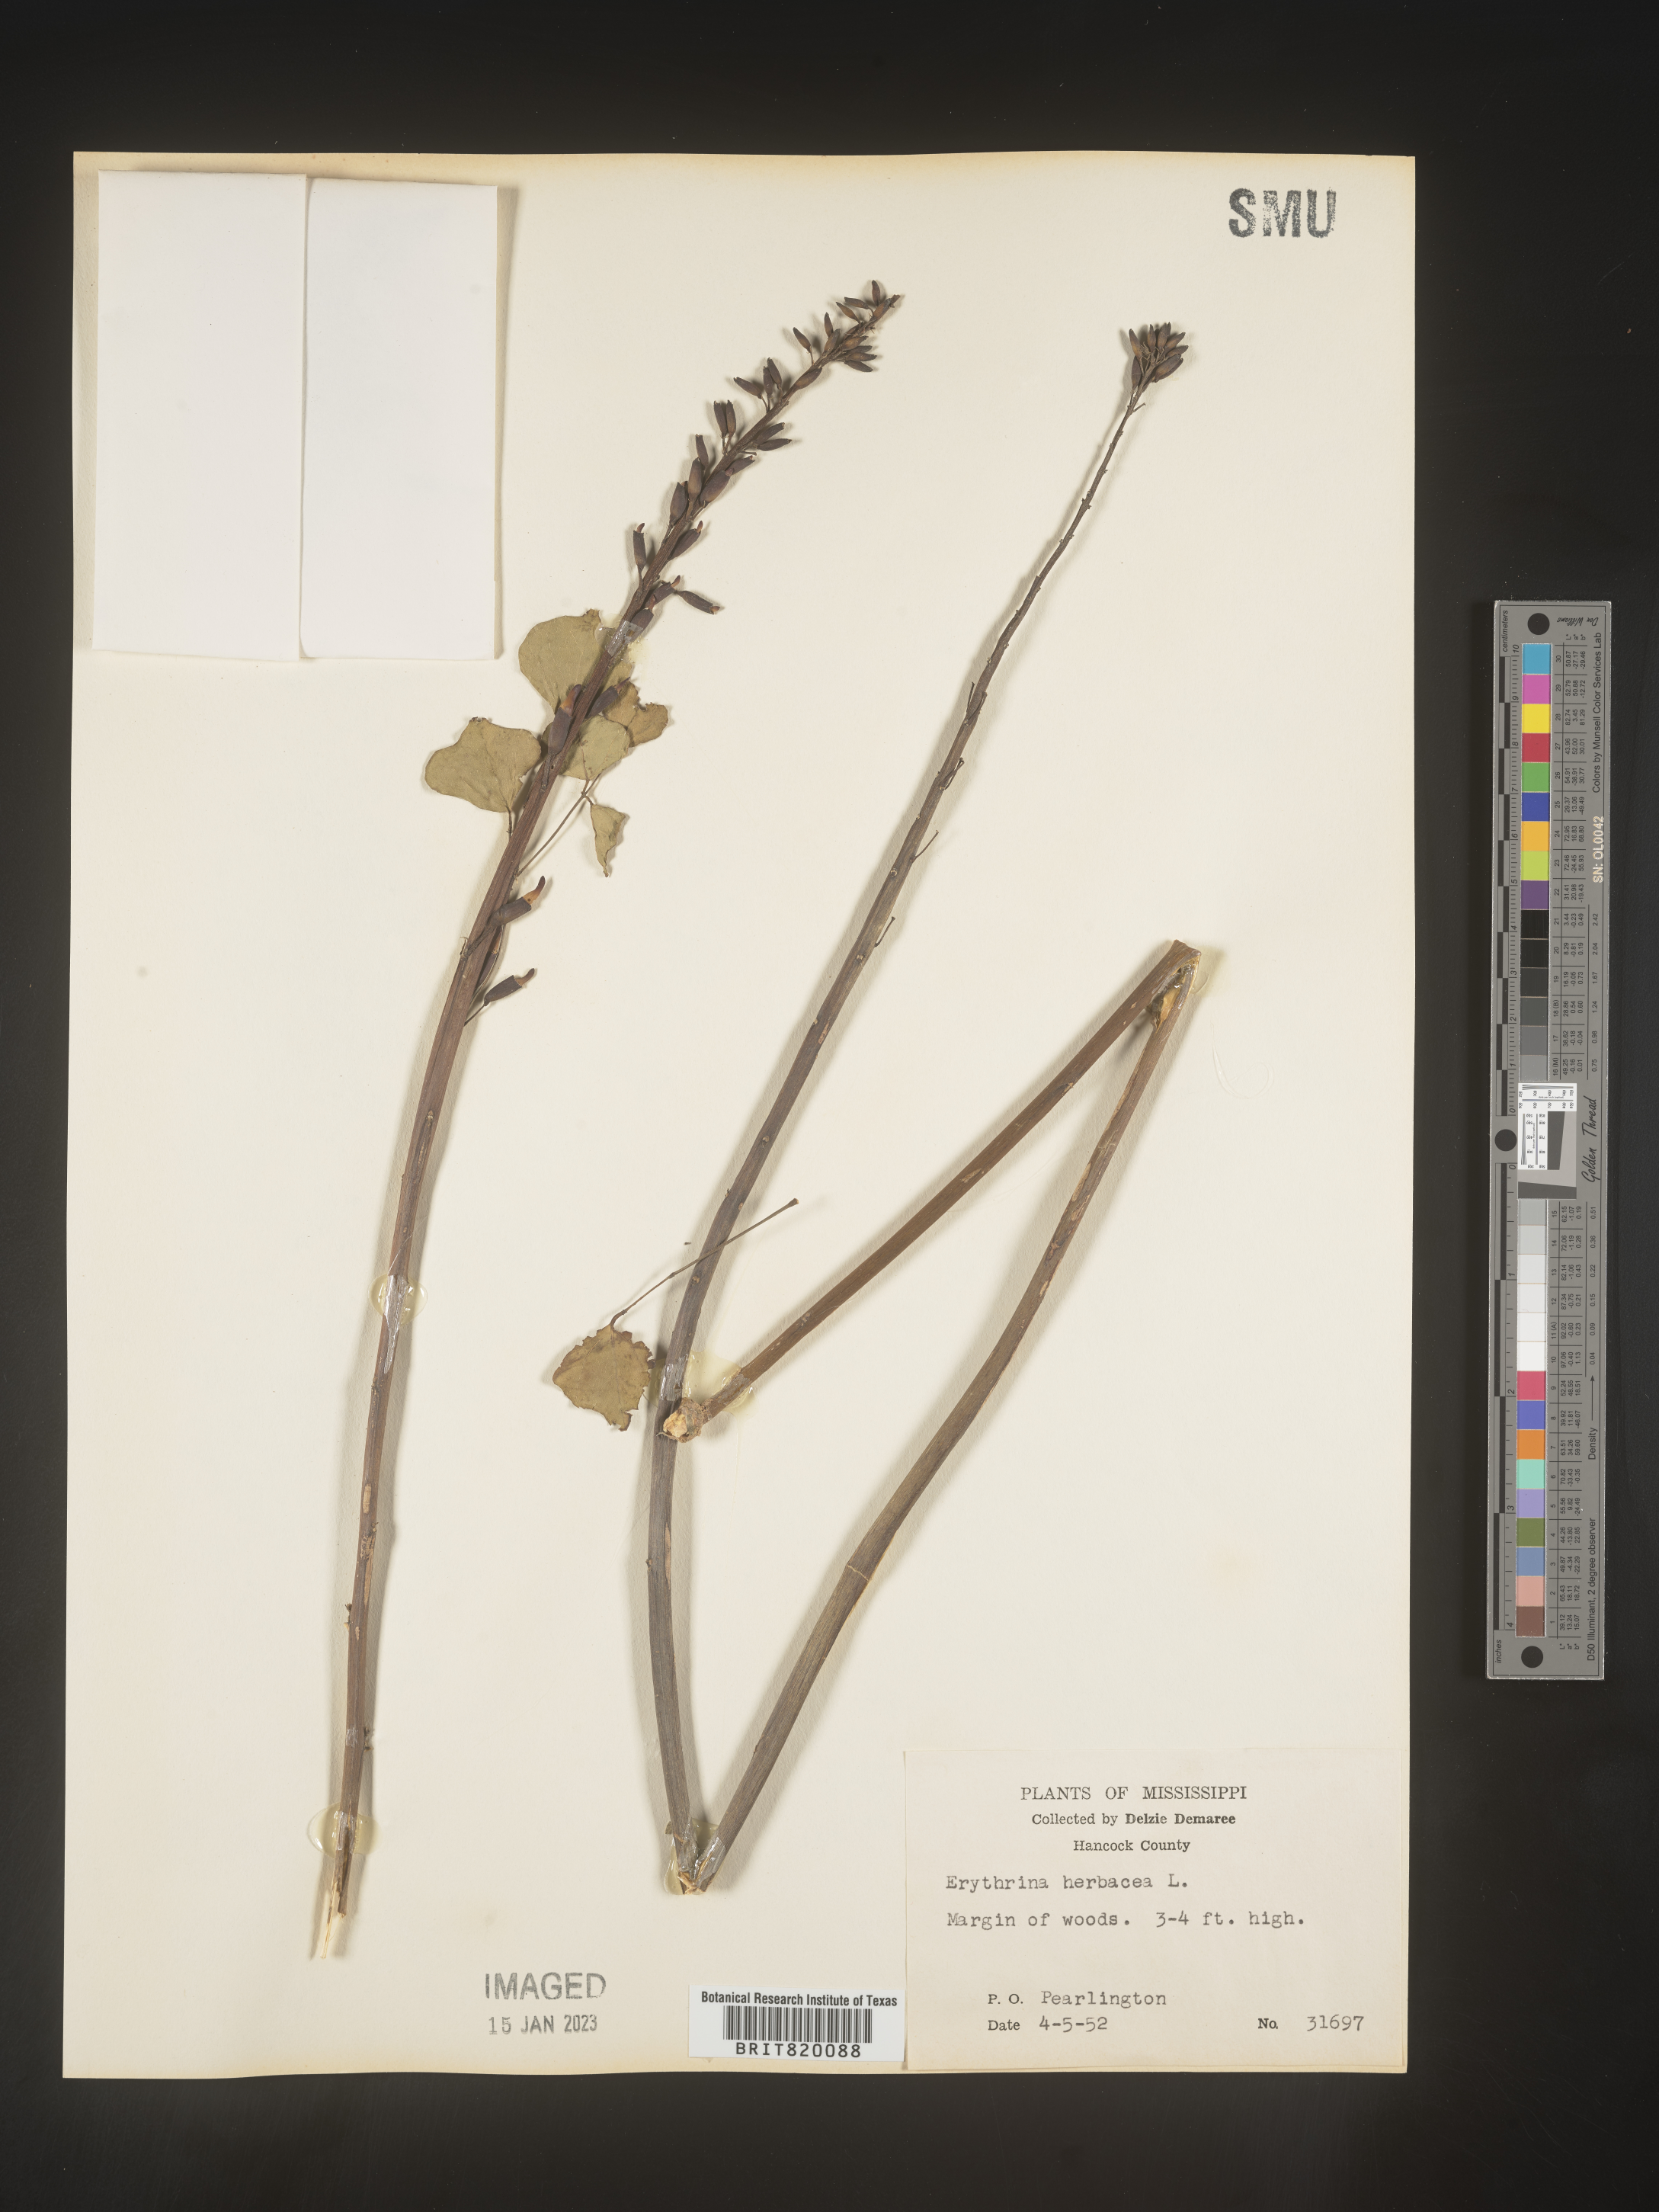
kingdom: Plantae
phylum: Tracheophyta
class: Magnoliopsida
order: Fabales
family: Fabaceae
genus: Erythrina
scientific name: Erythrina herbacea
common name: Coral-bean
